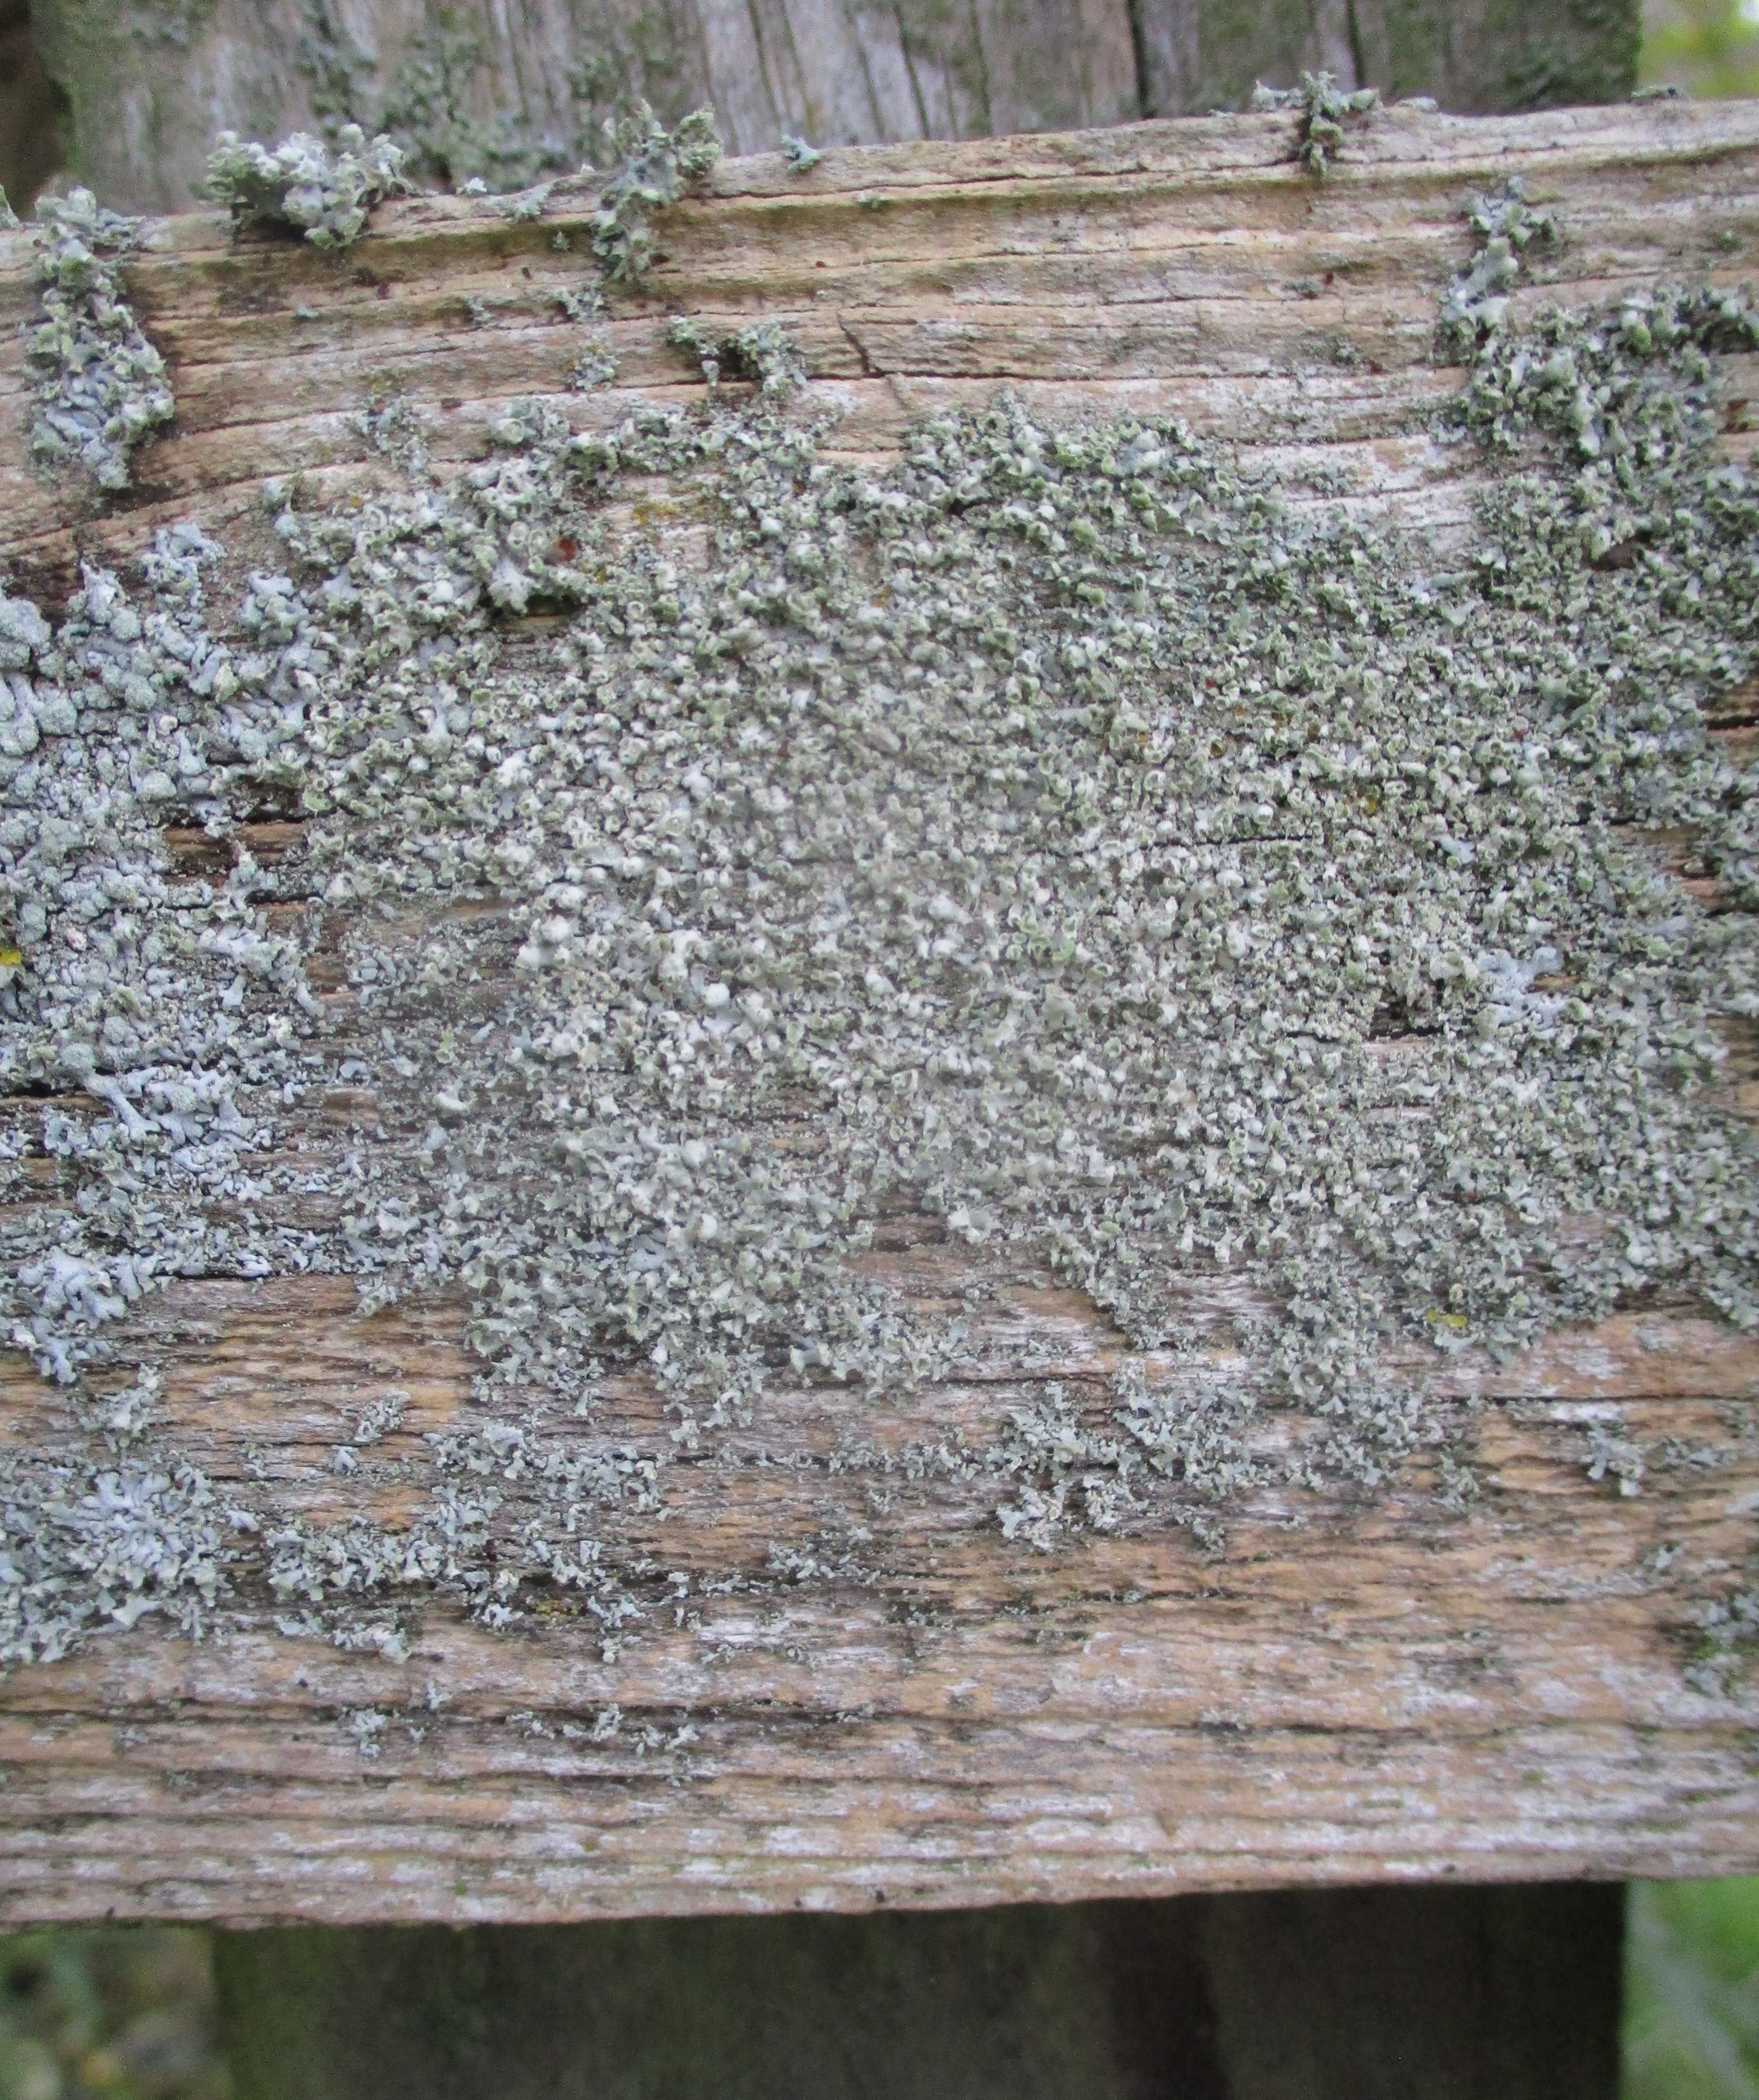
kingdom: Fungi
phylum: Ascomycota
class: Lecanoromycetes
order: Caliciales
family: Physciaceae
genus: Physcia
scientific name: Physcia adscendens
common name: Hætte-rosetlav
